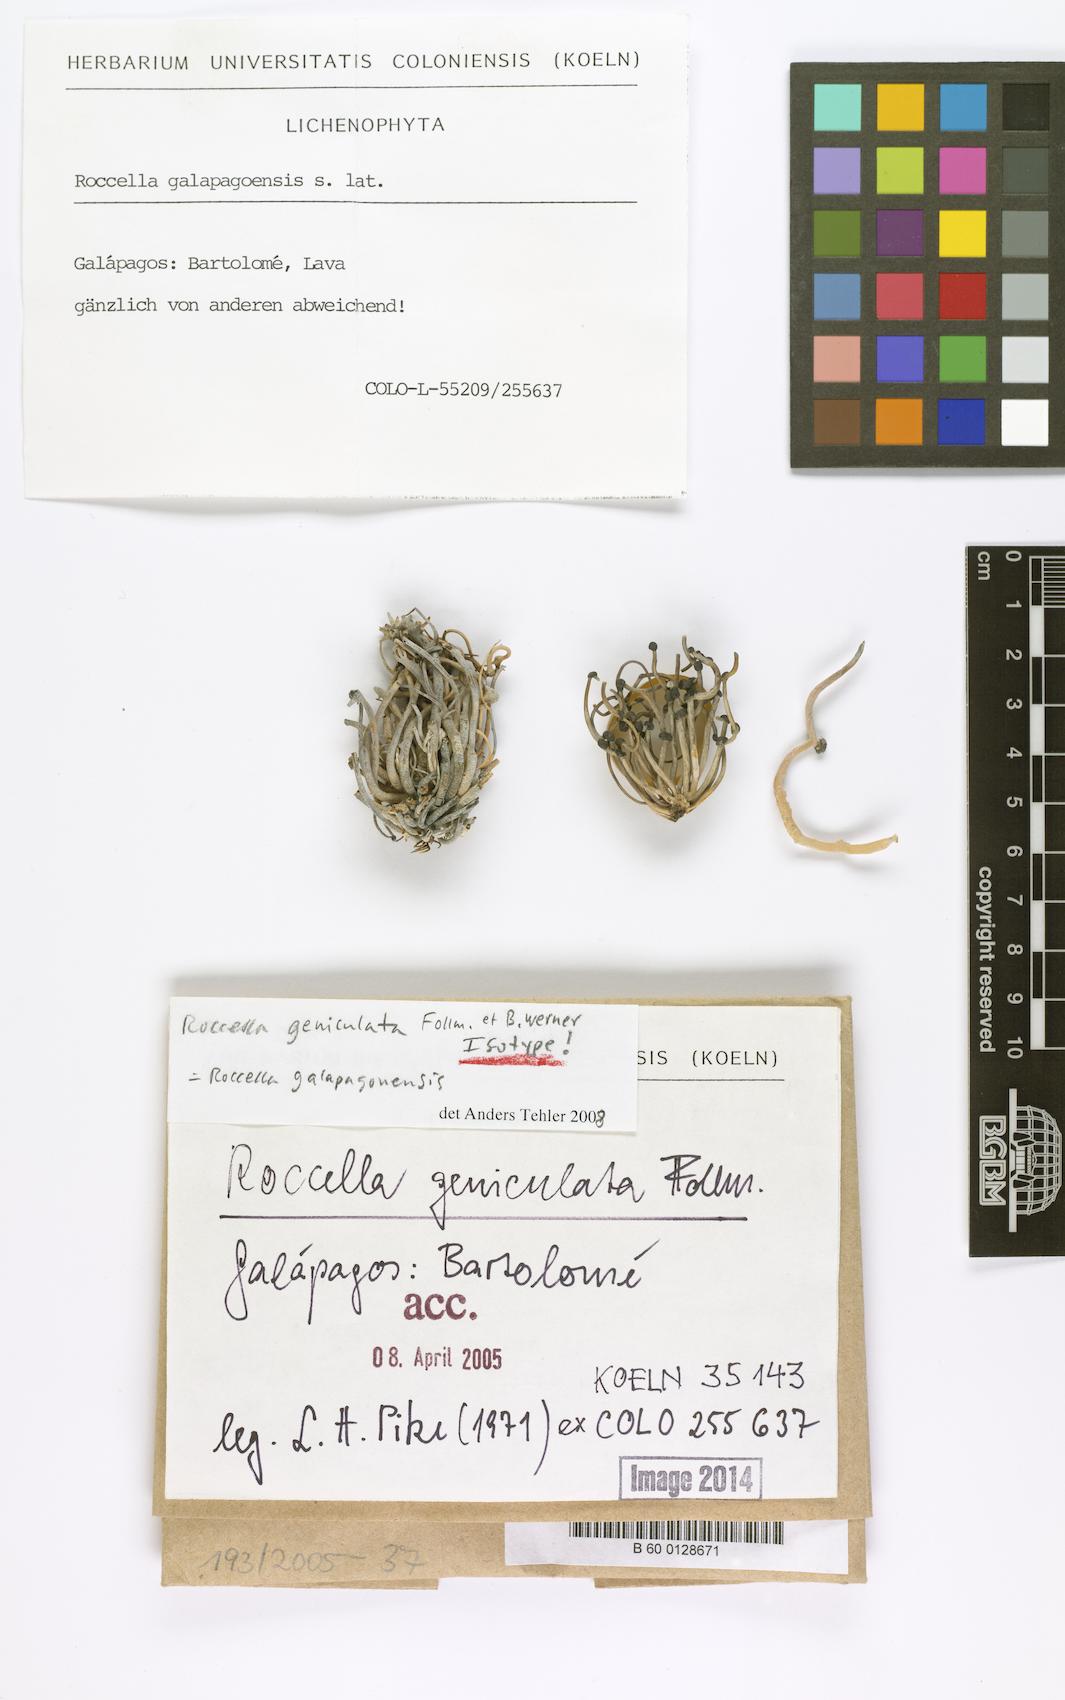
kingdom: Fungi
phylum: Ascomycota
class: Arthoniomycetes
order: Arthoniales
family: Roccellaceae
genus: Roccella
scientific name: Roccella geniculata
